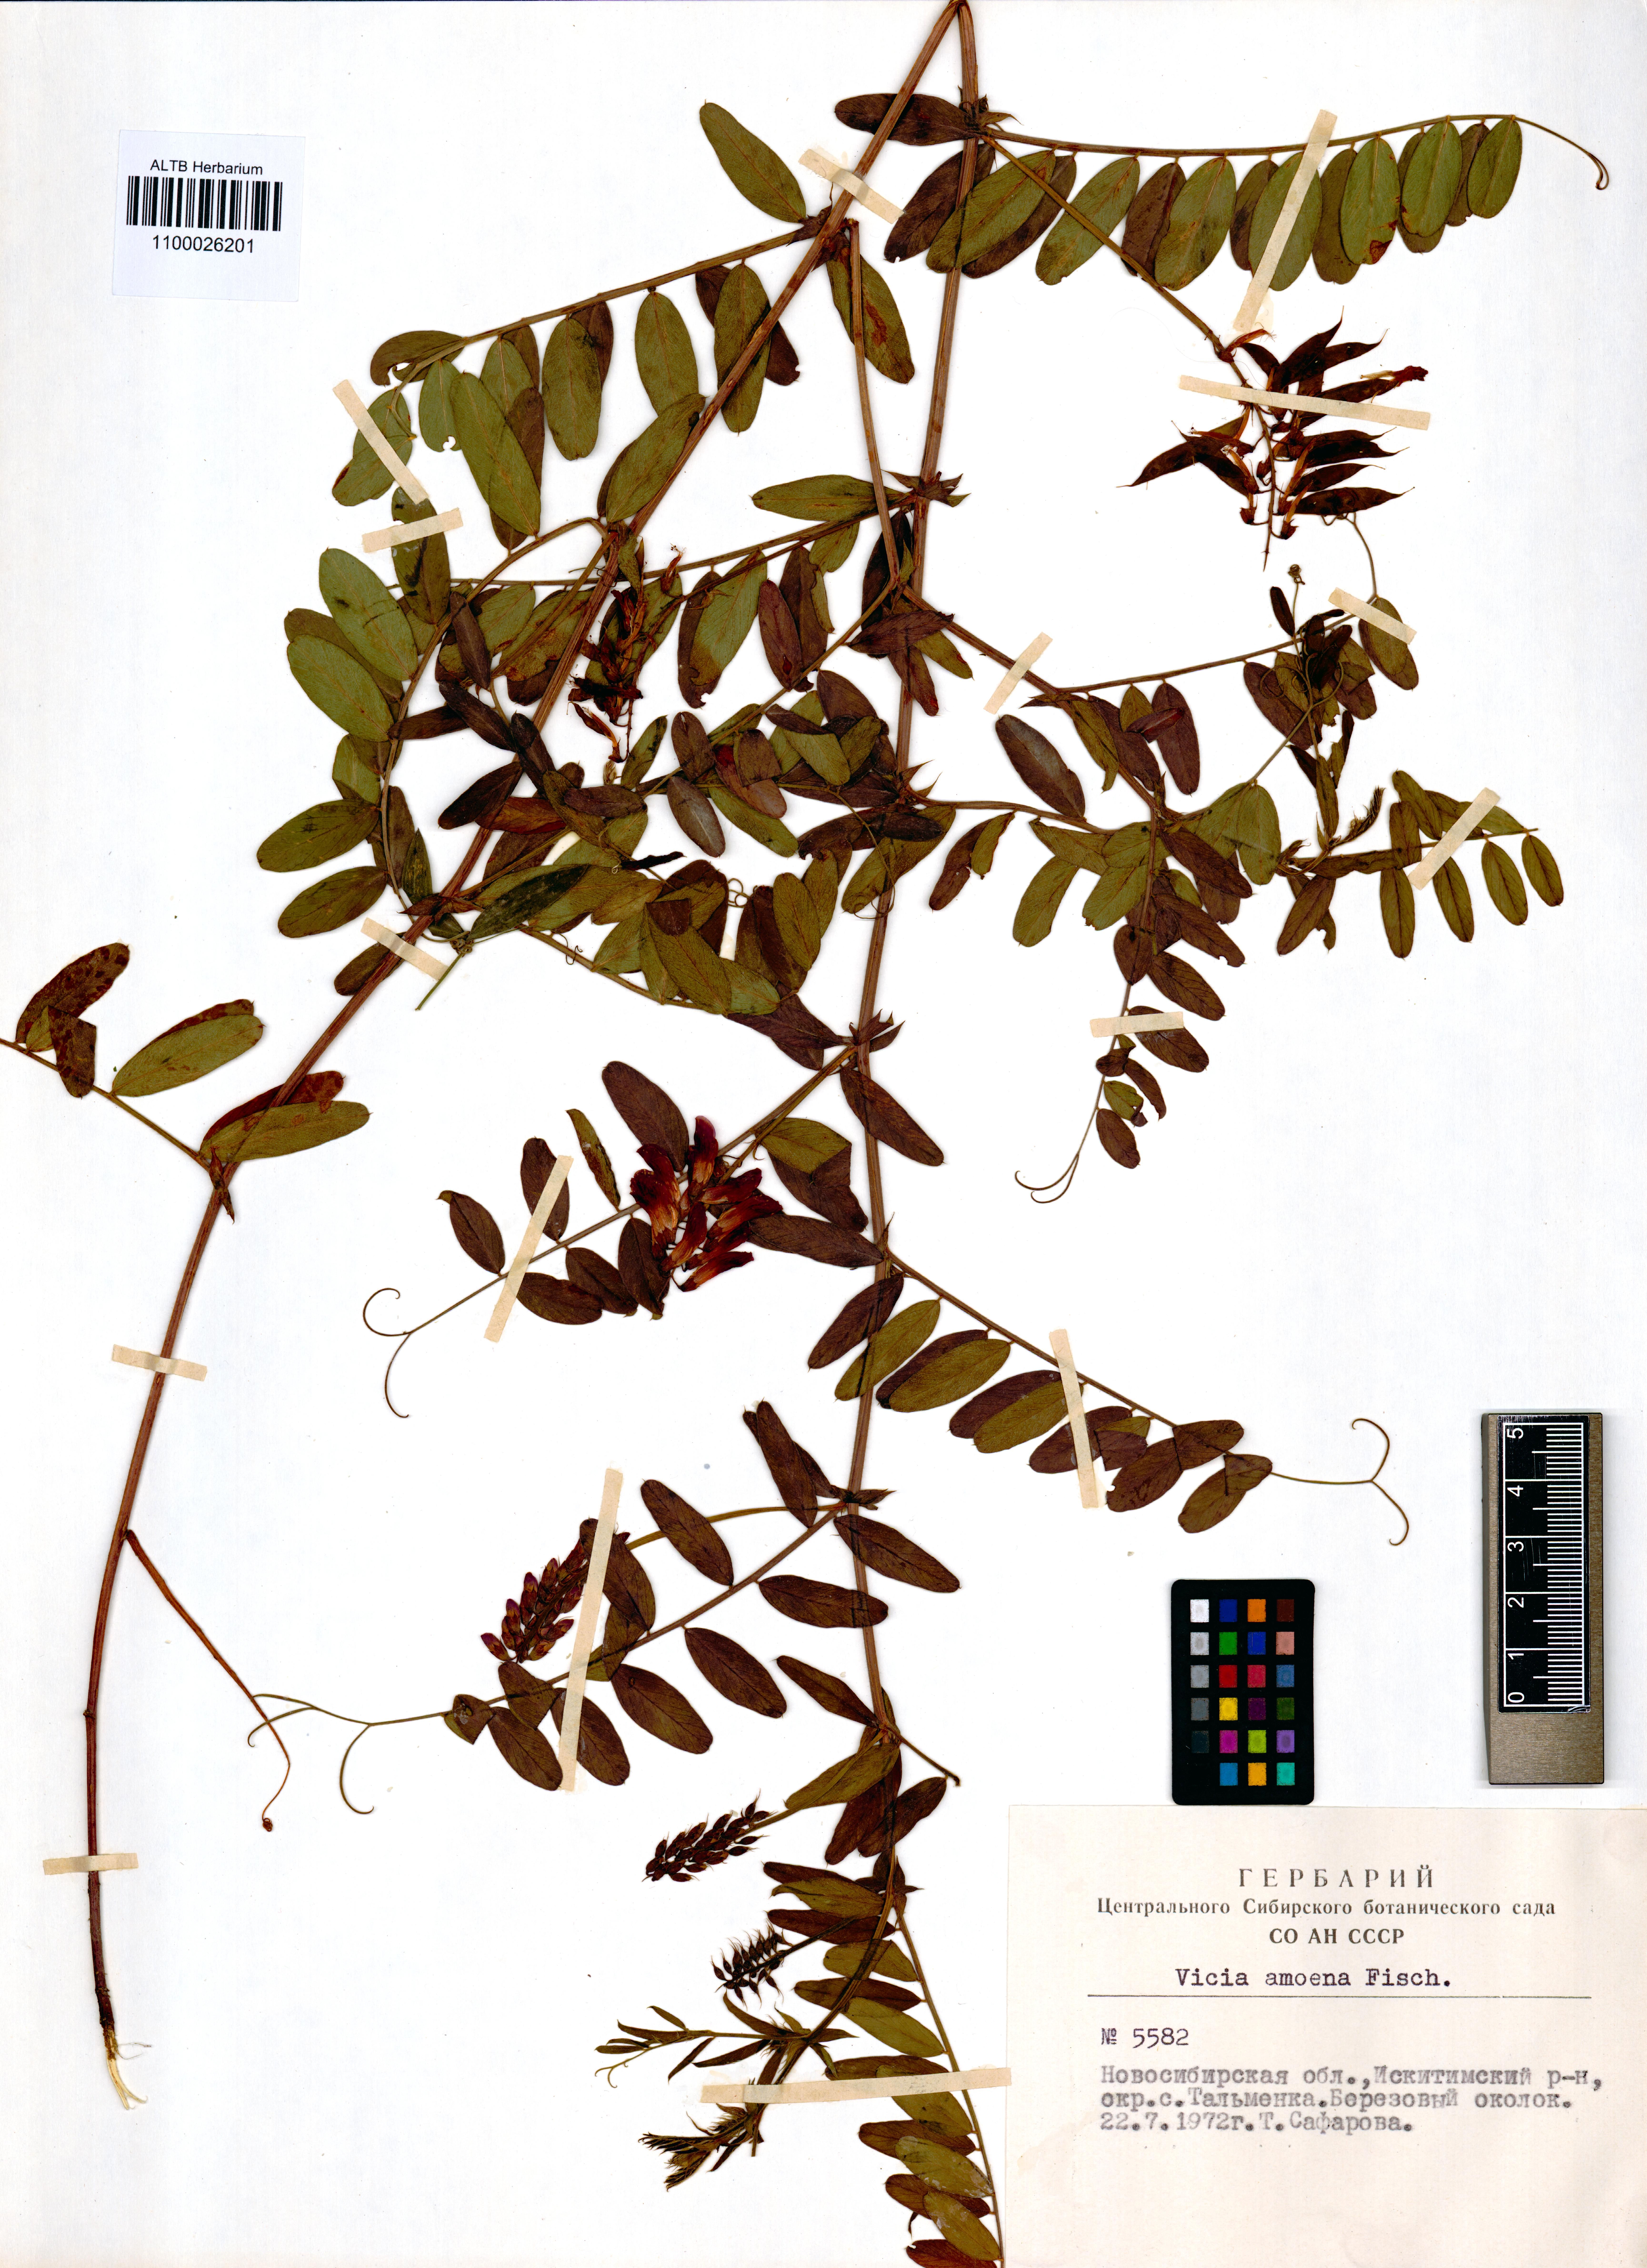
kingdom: Plantae
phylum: Tracheophyta
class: Magnoliopsida
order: Fabales
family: Fabaceae
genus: Vicia
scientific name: Vicia amoena
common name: Cheder ebs
